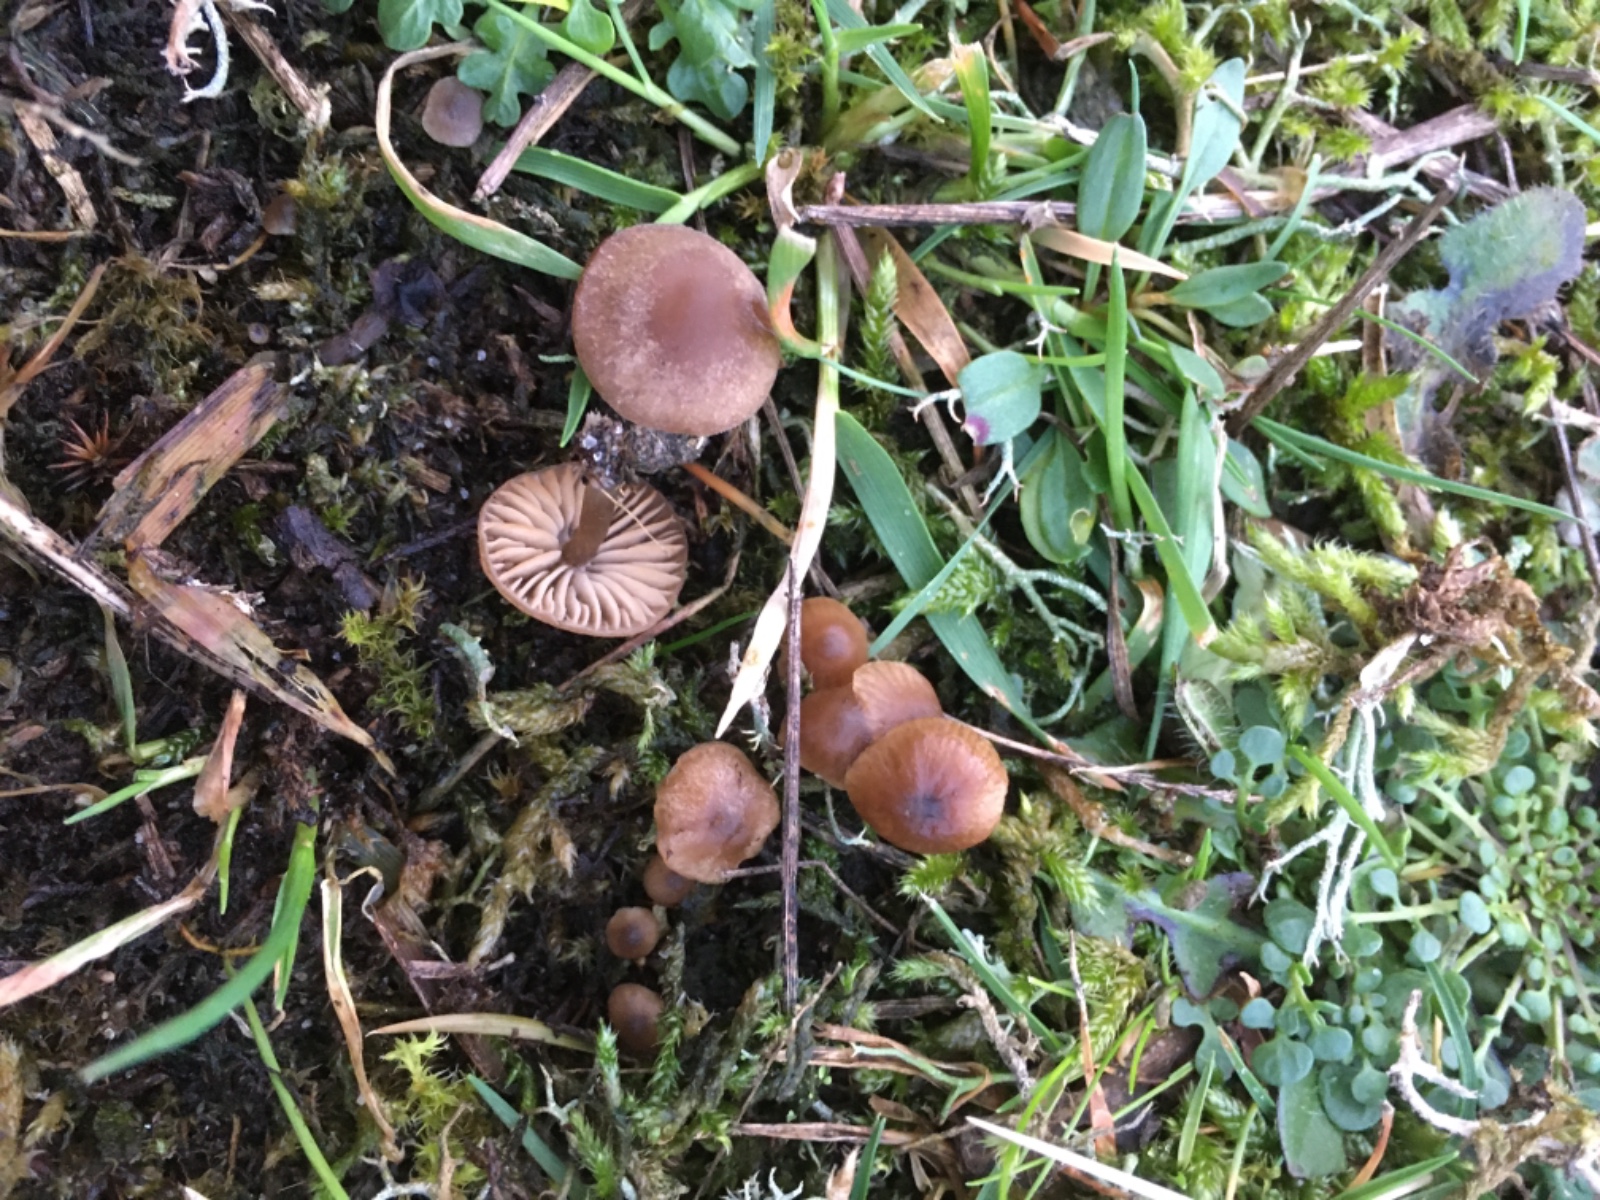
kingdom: Fungi
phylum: Basidiomycota
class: Agaricomycetes
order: Agaricales
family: Lyophyllaceae
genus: Sagaranella
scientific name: Sagaranella tylicolor
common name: kvælstof-gråblad
